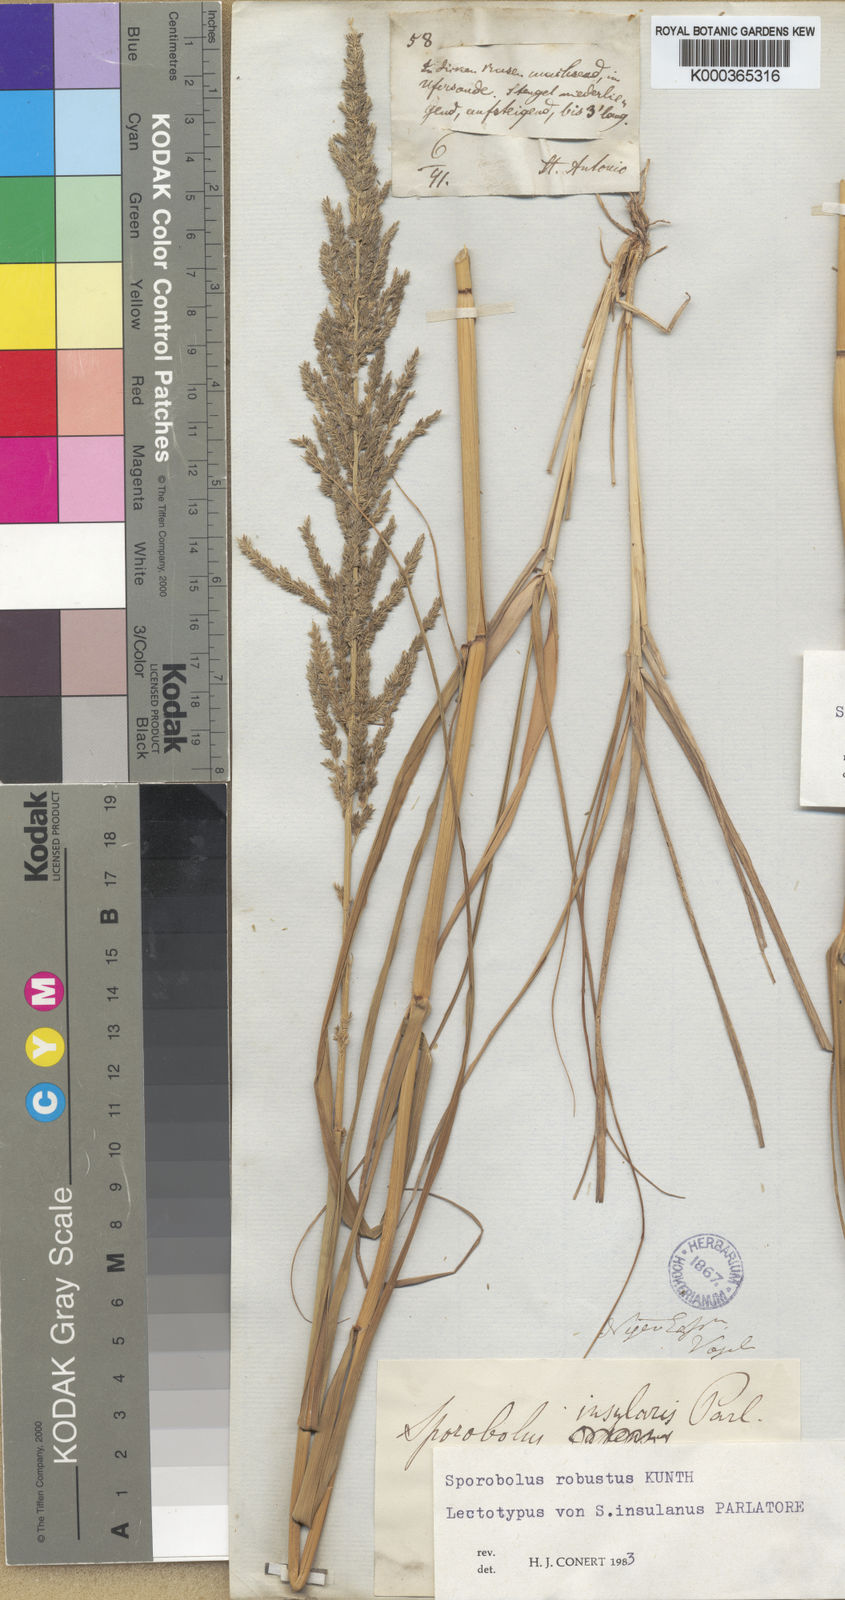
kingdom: Plantae
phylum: Tracheophyta
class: Liliopsida
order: Poales
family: Poaceae
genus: Sporobolus
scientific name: Sporobolus robustus
